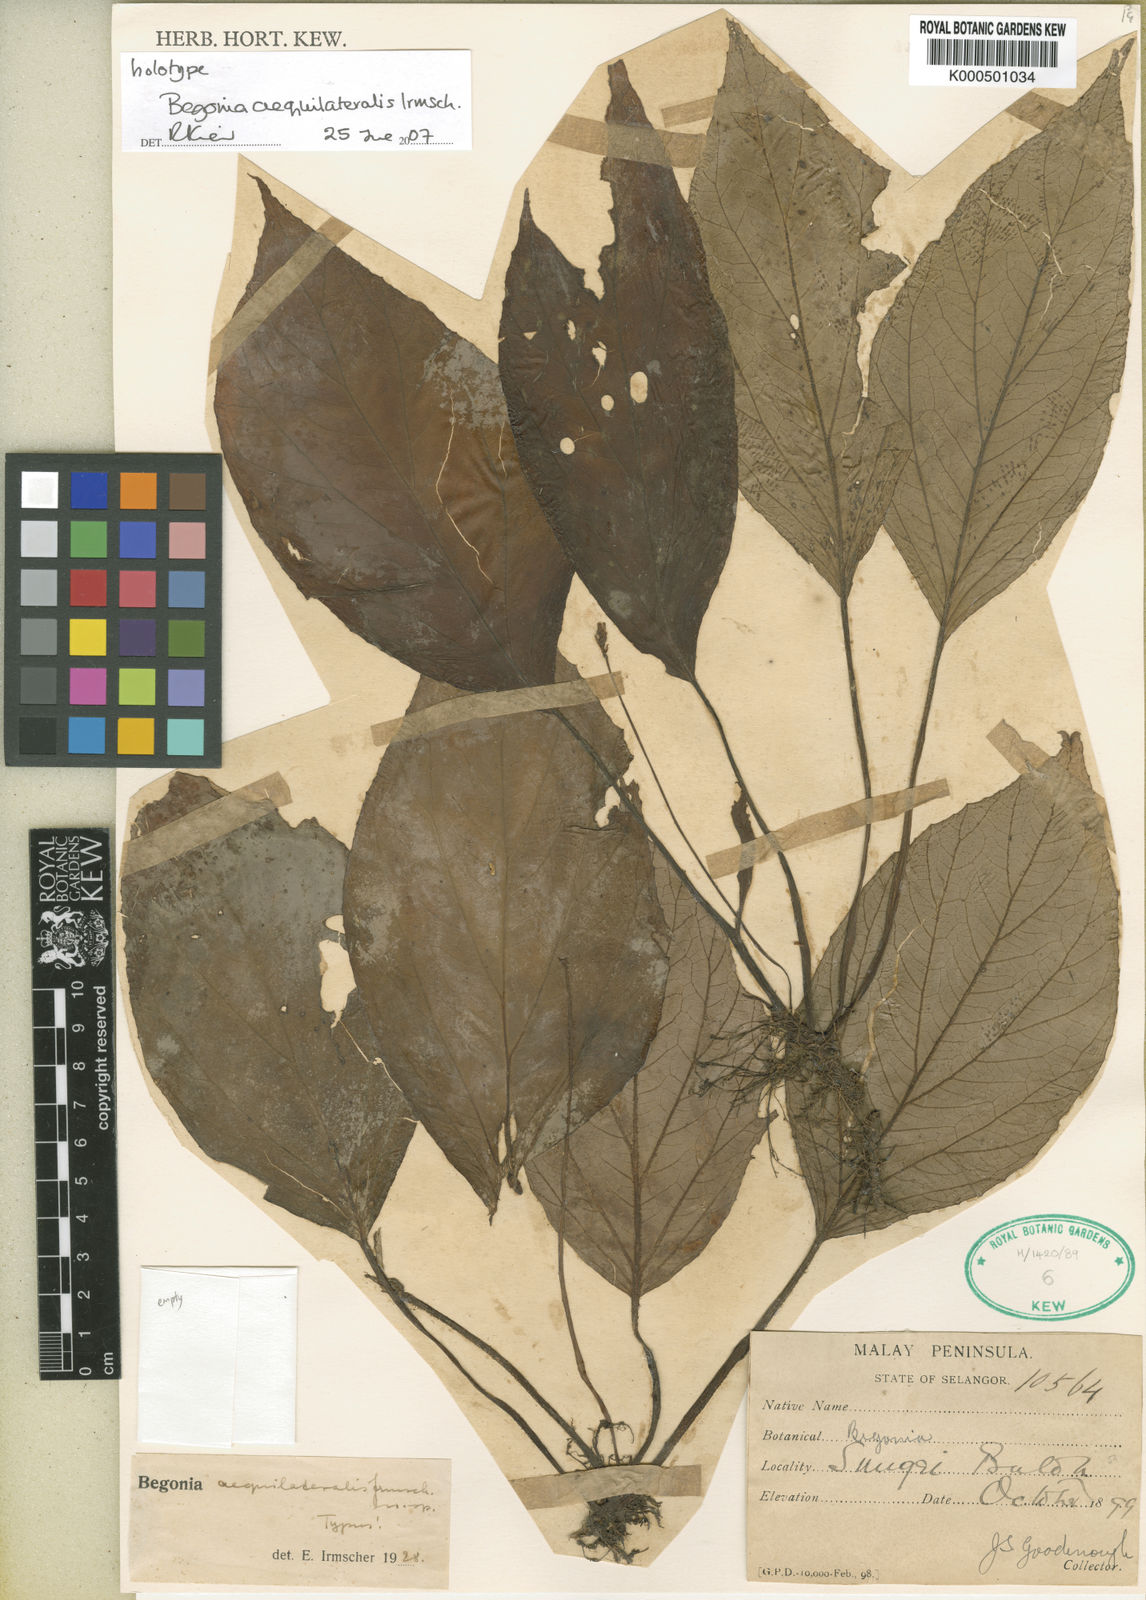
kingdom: Plantae
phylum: Tracheophyta
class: Magnoliopsida
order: Cucurbitales
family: Begoniaceae
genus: Begonia
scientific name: Begonia aequilateralis
